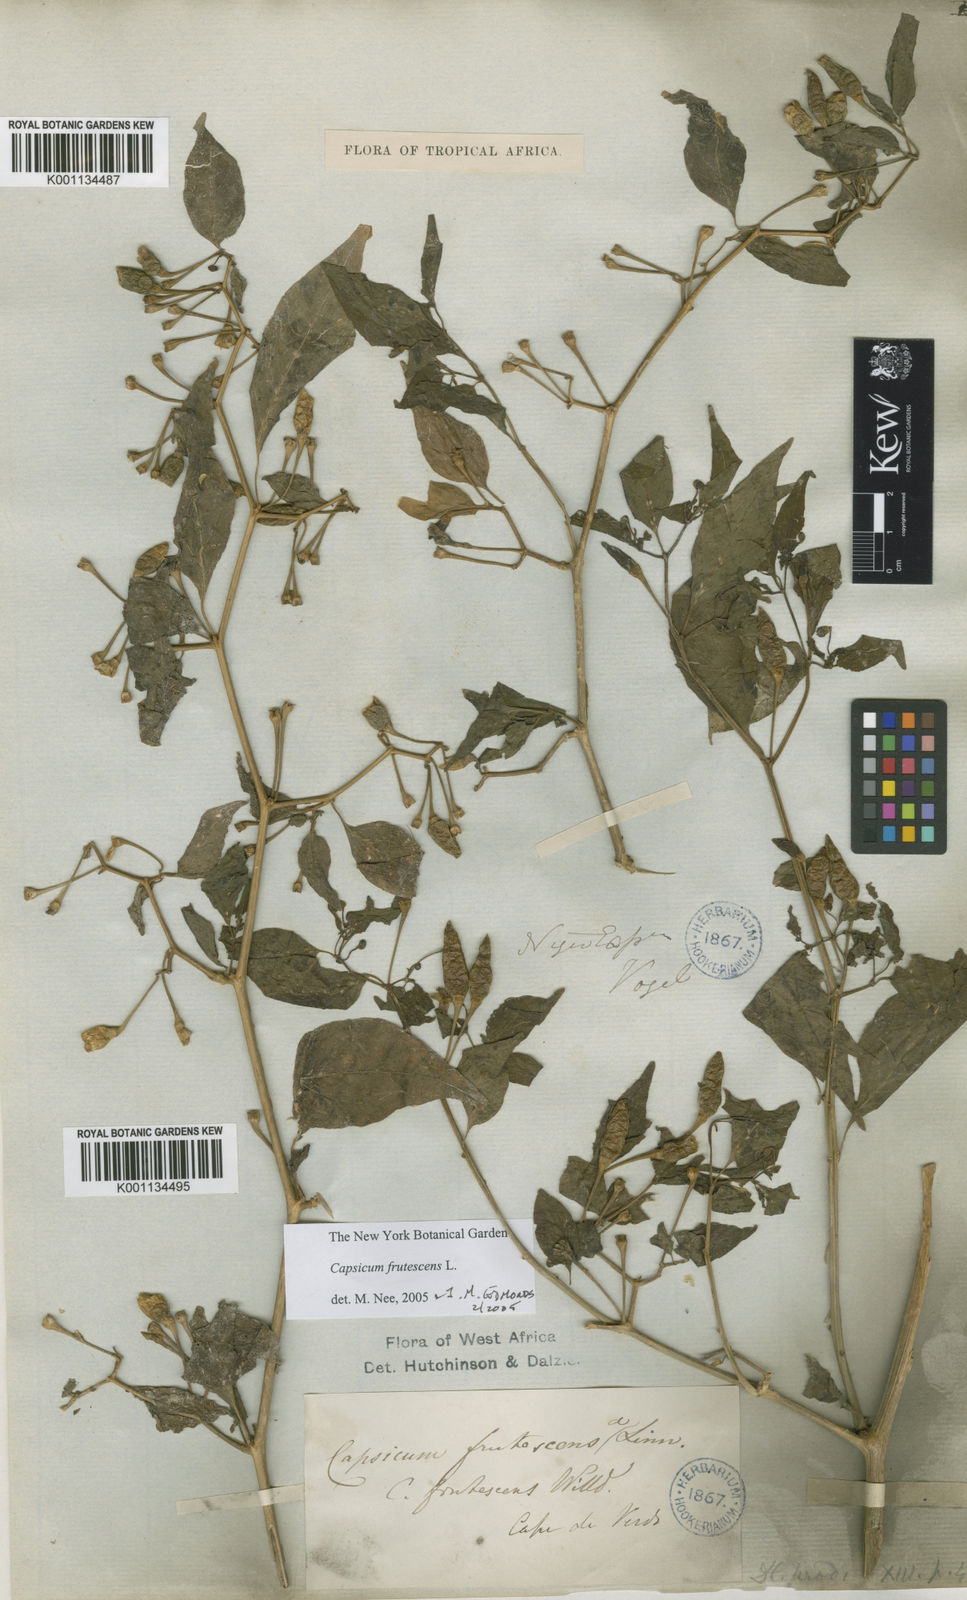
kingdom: Plantae
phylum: Tracheophyta
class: Magnoliopsida
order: Solanales
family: Solanaceae
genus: Capsicum
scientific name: Capsicum frutescens
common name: Bird pepper
